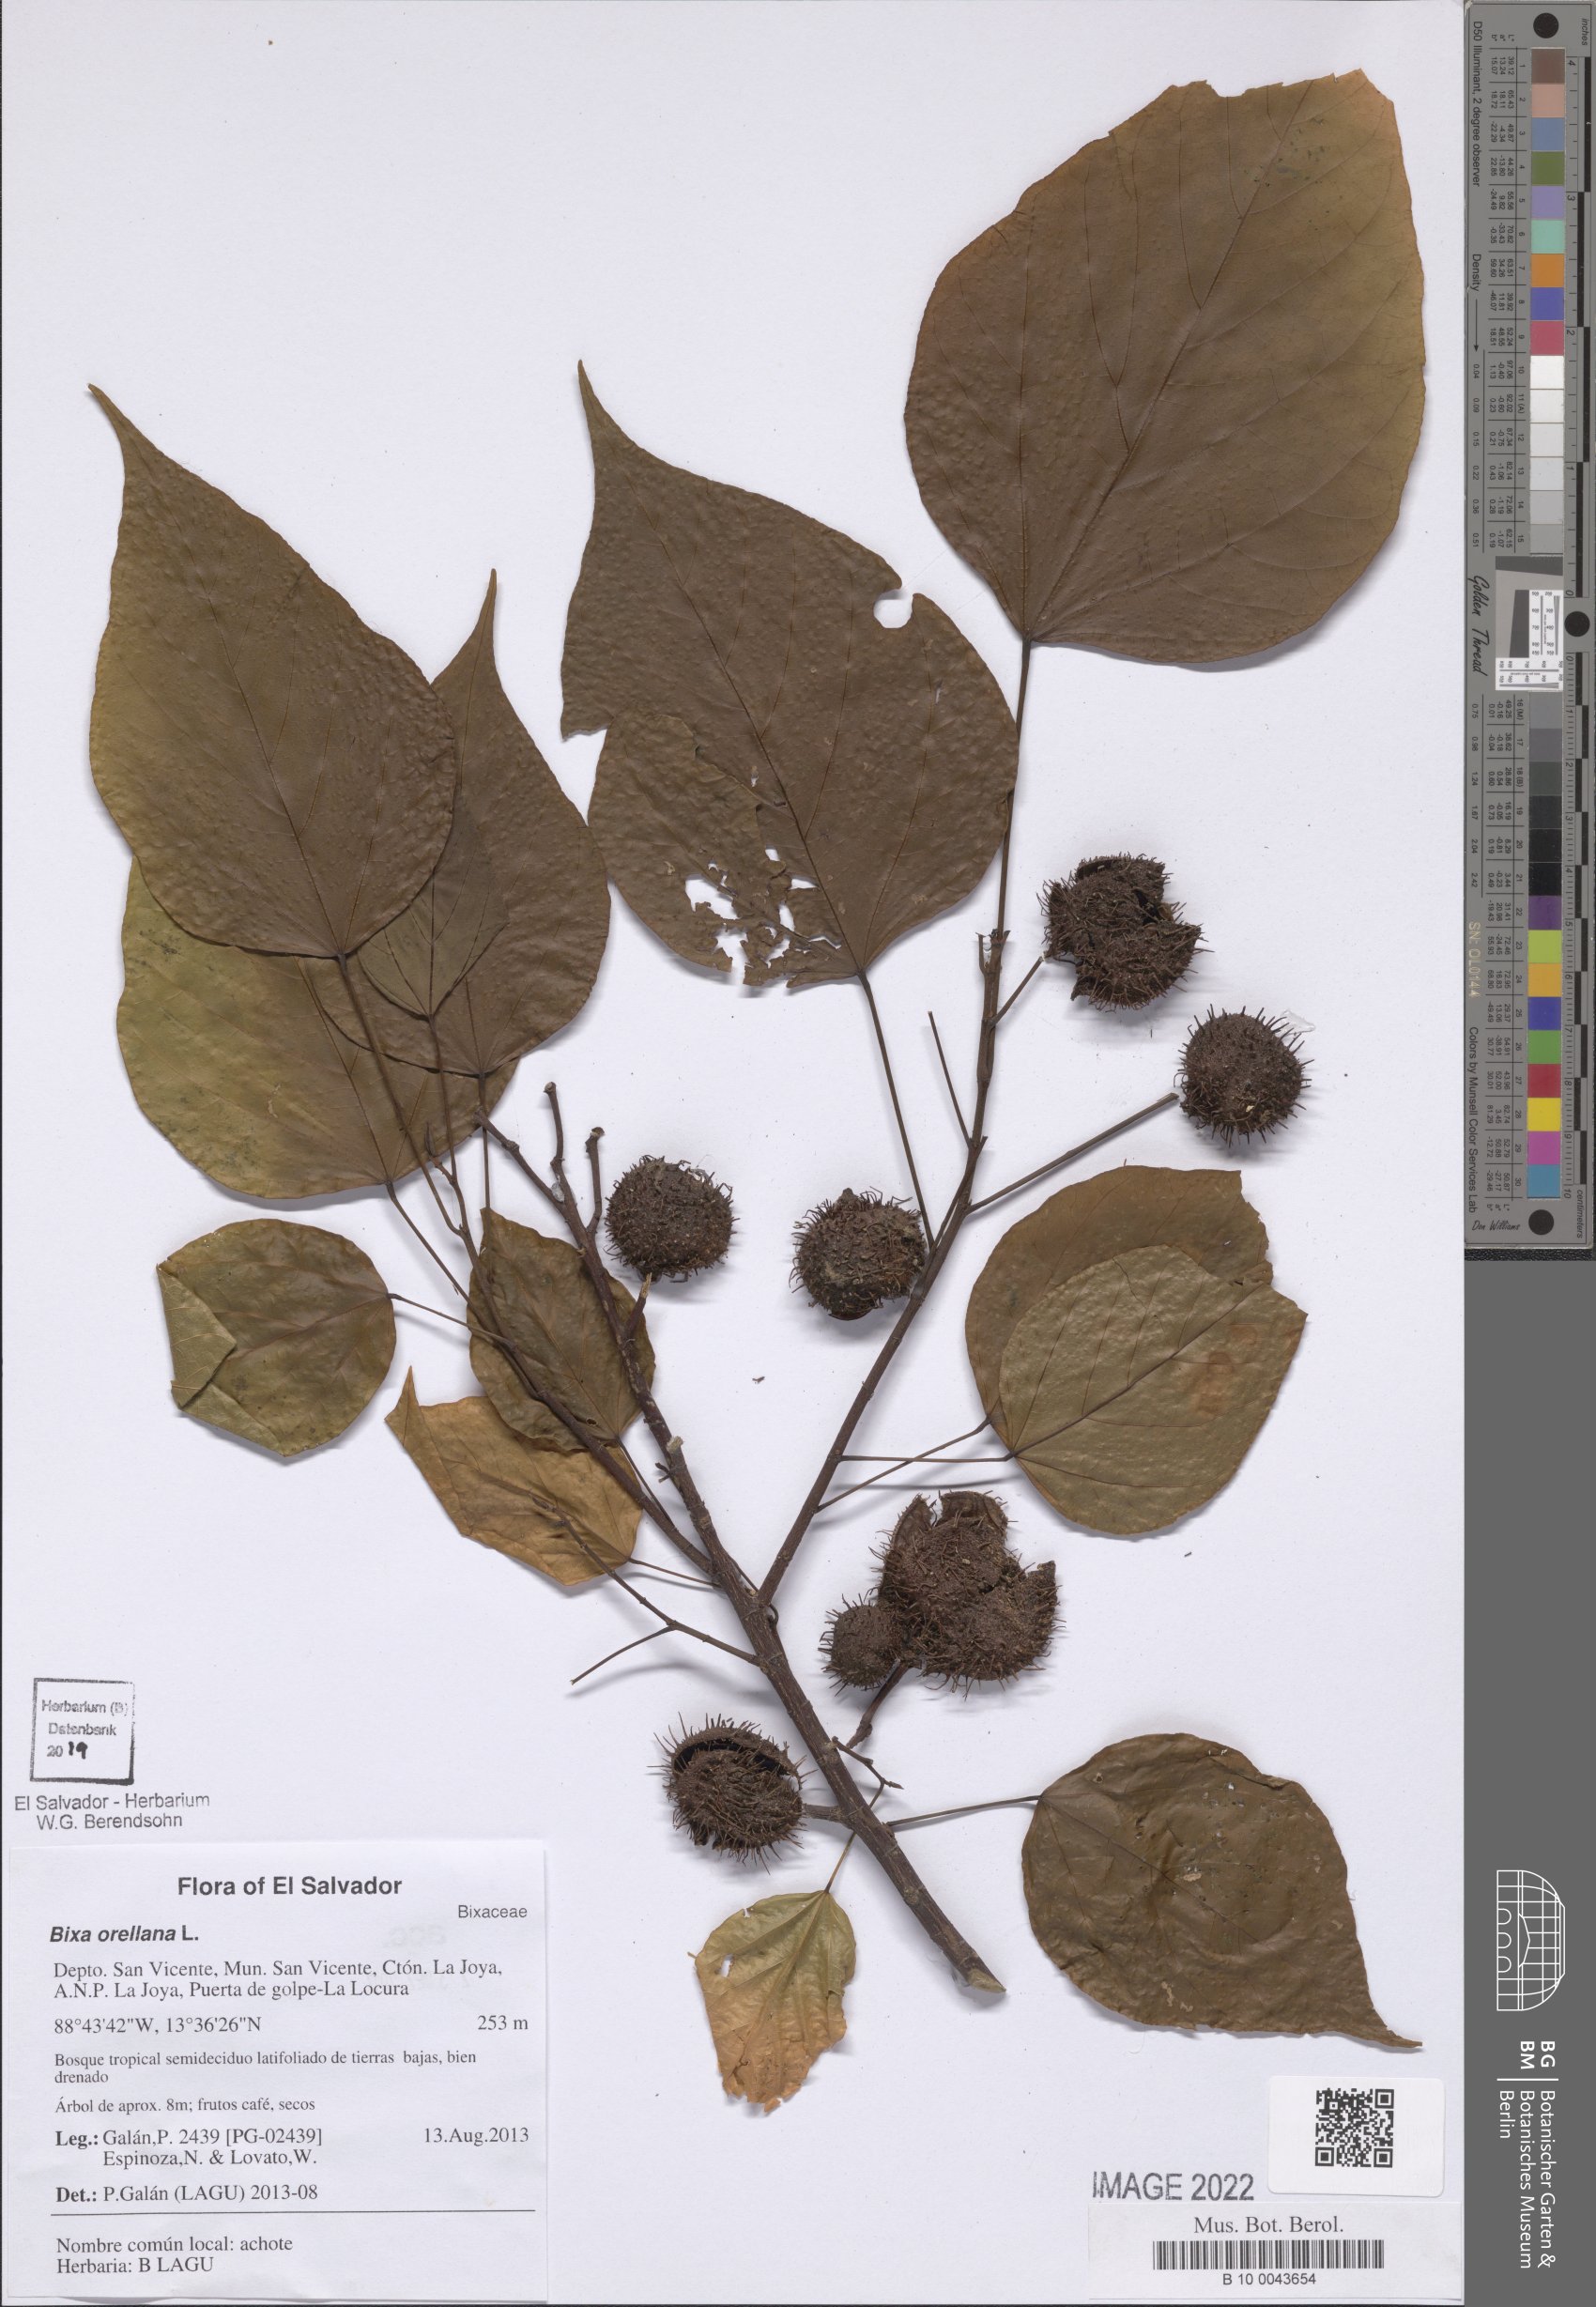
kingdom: Plantae
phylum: Tracheophyta
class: Magnoliopsida
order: Malvales
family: Bixaceae
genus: Bixa
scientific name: Bixa orellana
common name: Lipsticktree
